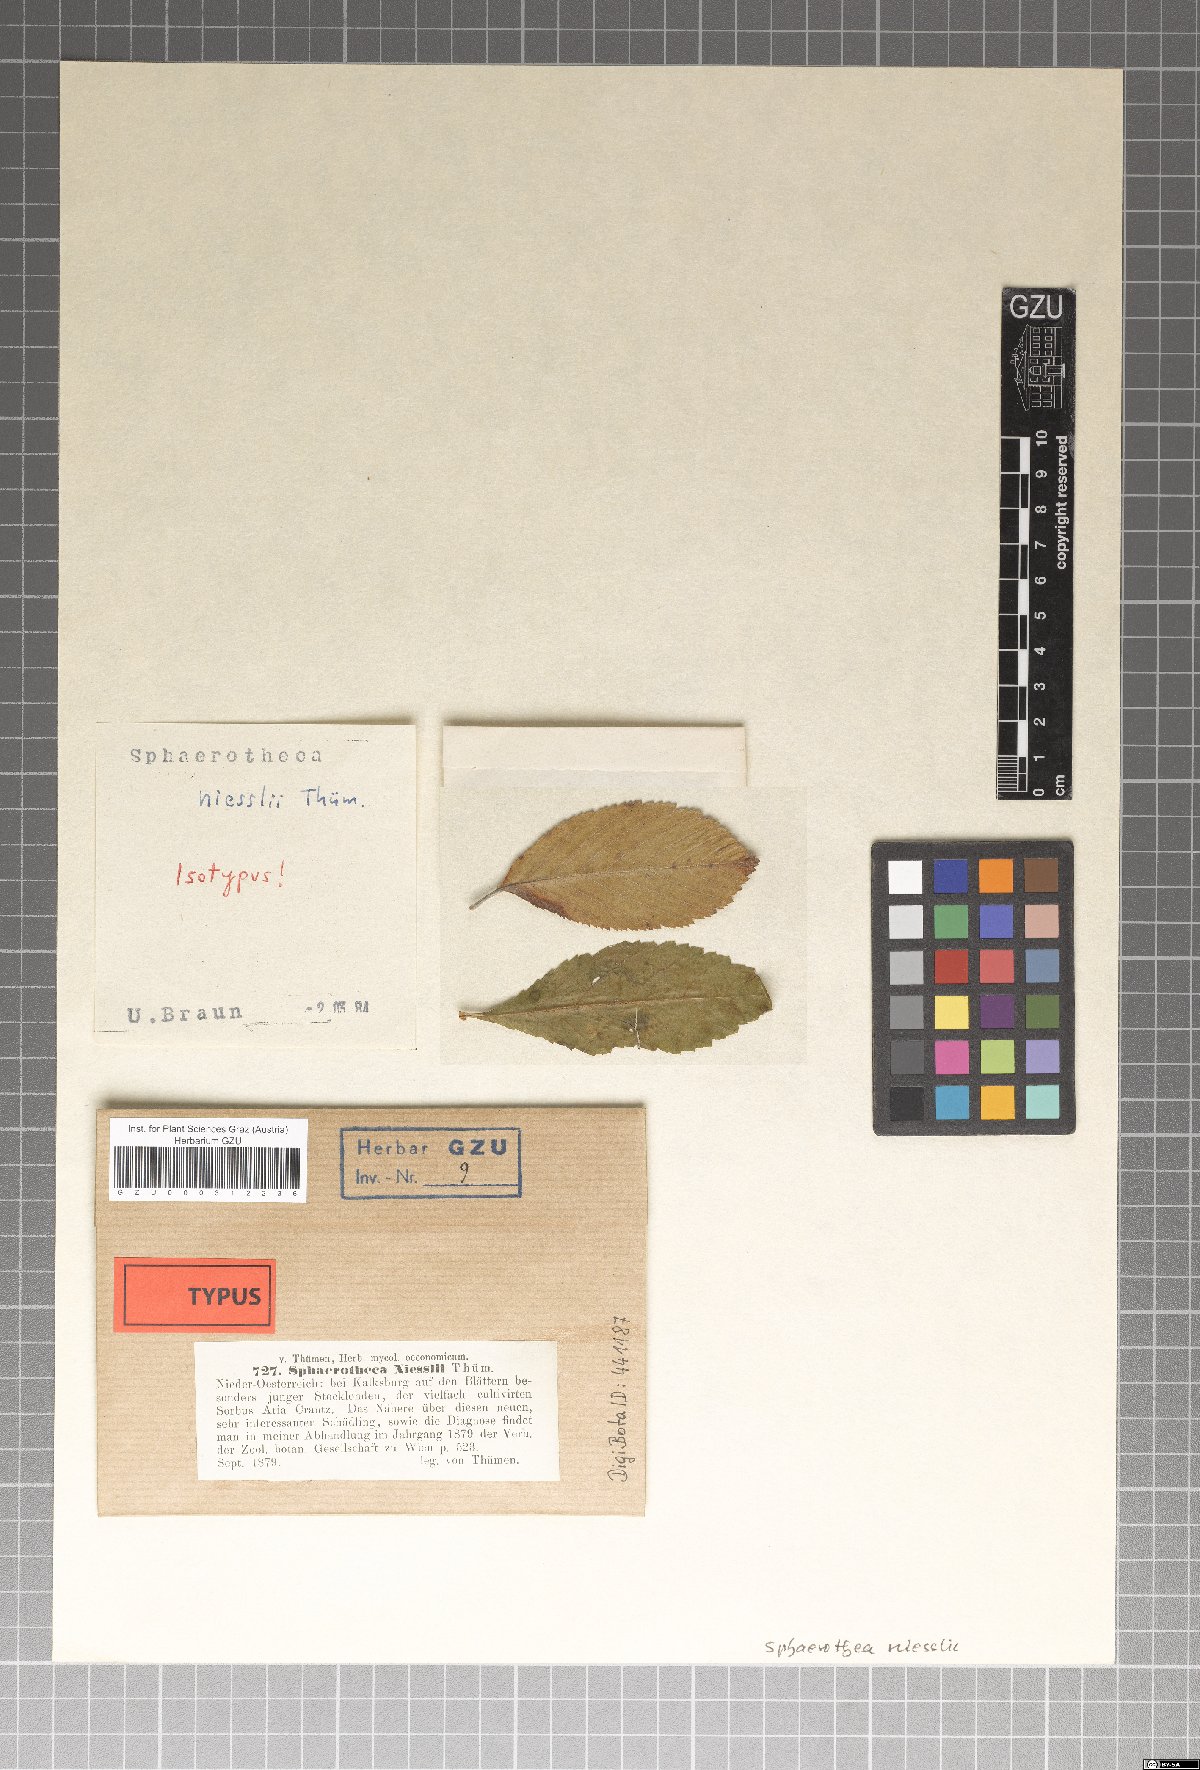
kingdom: Fungi
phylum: Ascomycota
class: Leotiomycetes
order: Helotiales
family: Erysiphaceae
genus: Podosphaera
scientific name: Podosphaera niesslii
